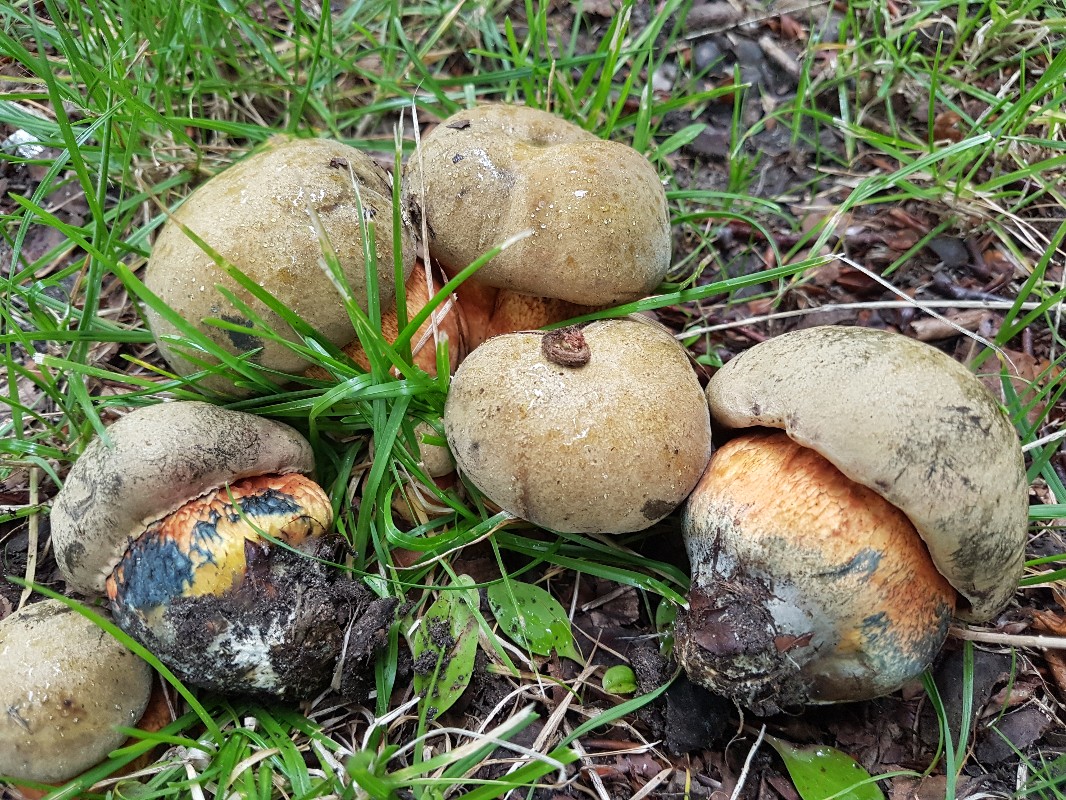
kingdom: Fungi
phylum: Basidiomycota
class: Agaricomycetes
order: Boletales
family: Boletaceae
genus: Suillellus
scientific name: Suillellus luridus
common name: netstokket indigorørhat
